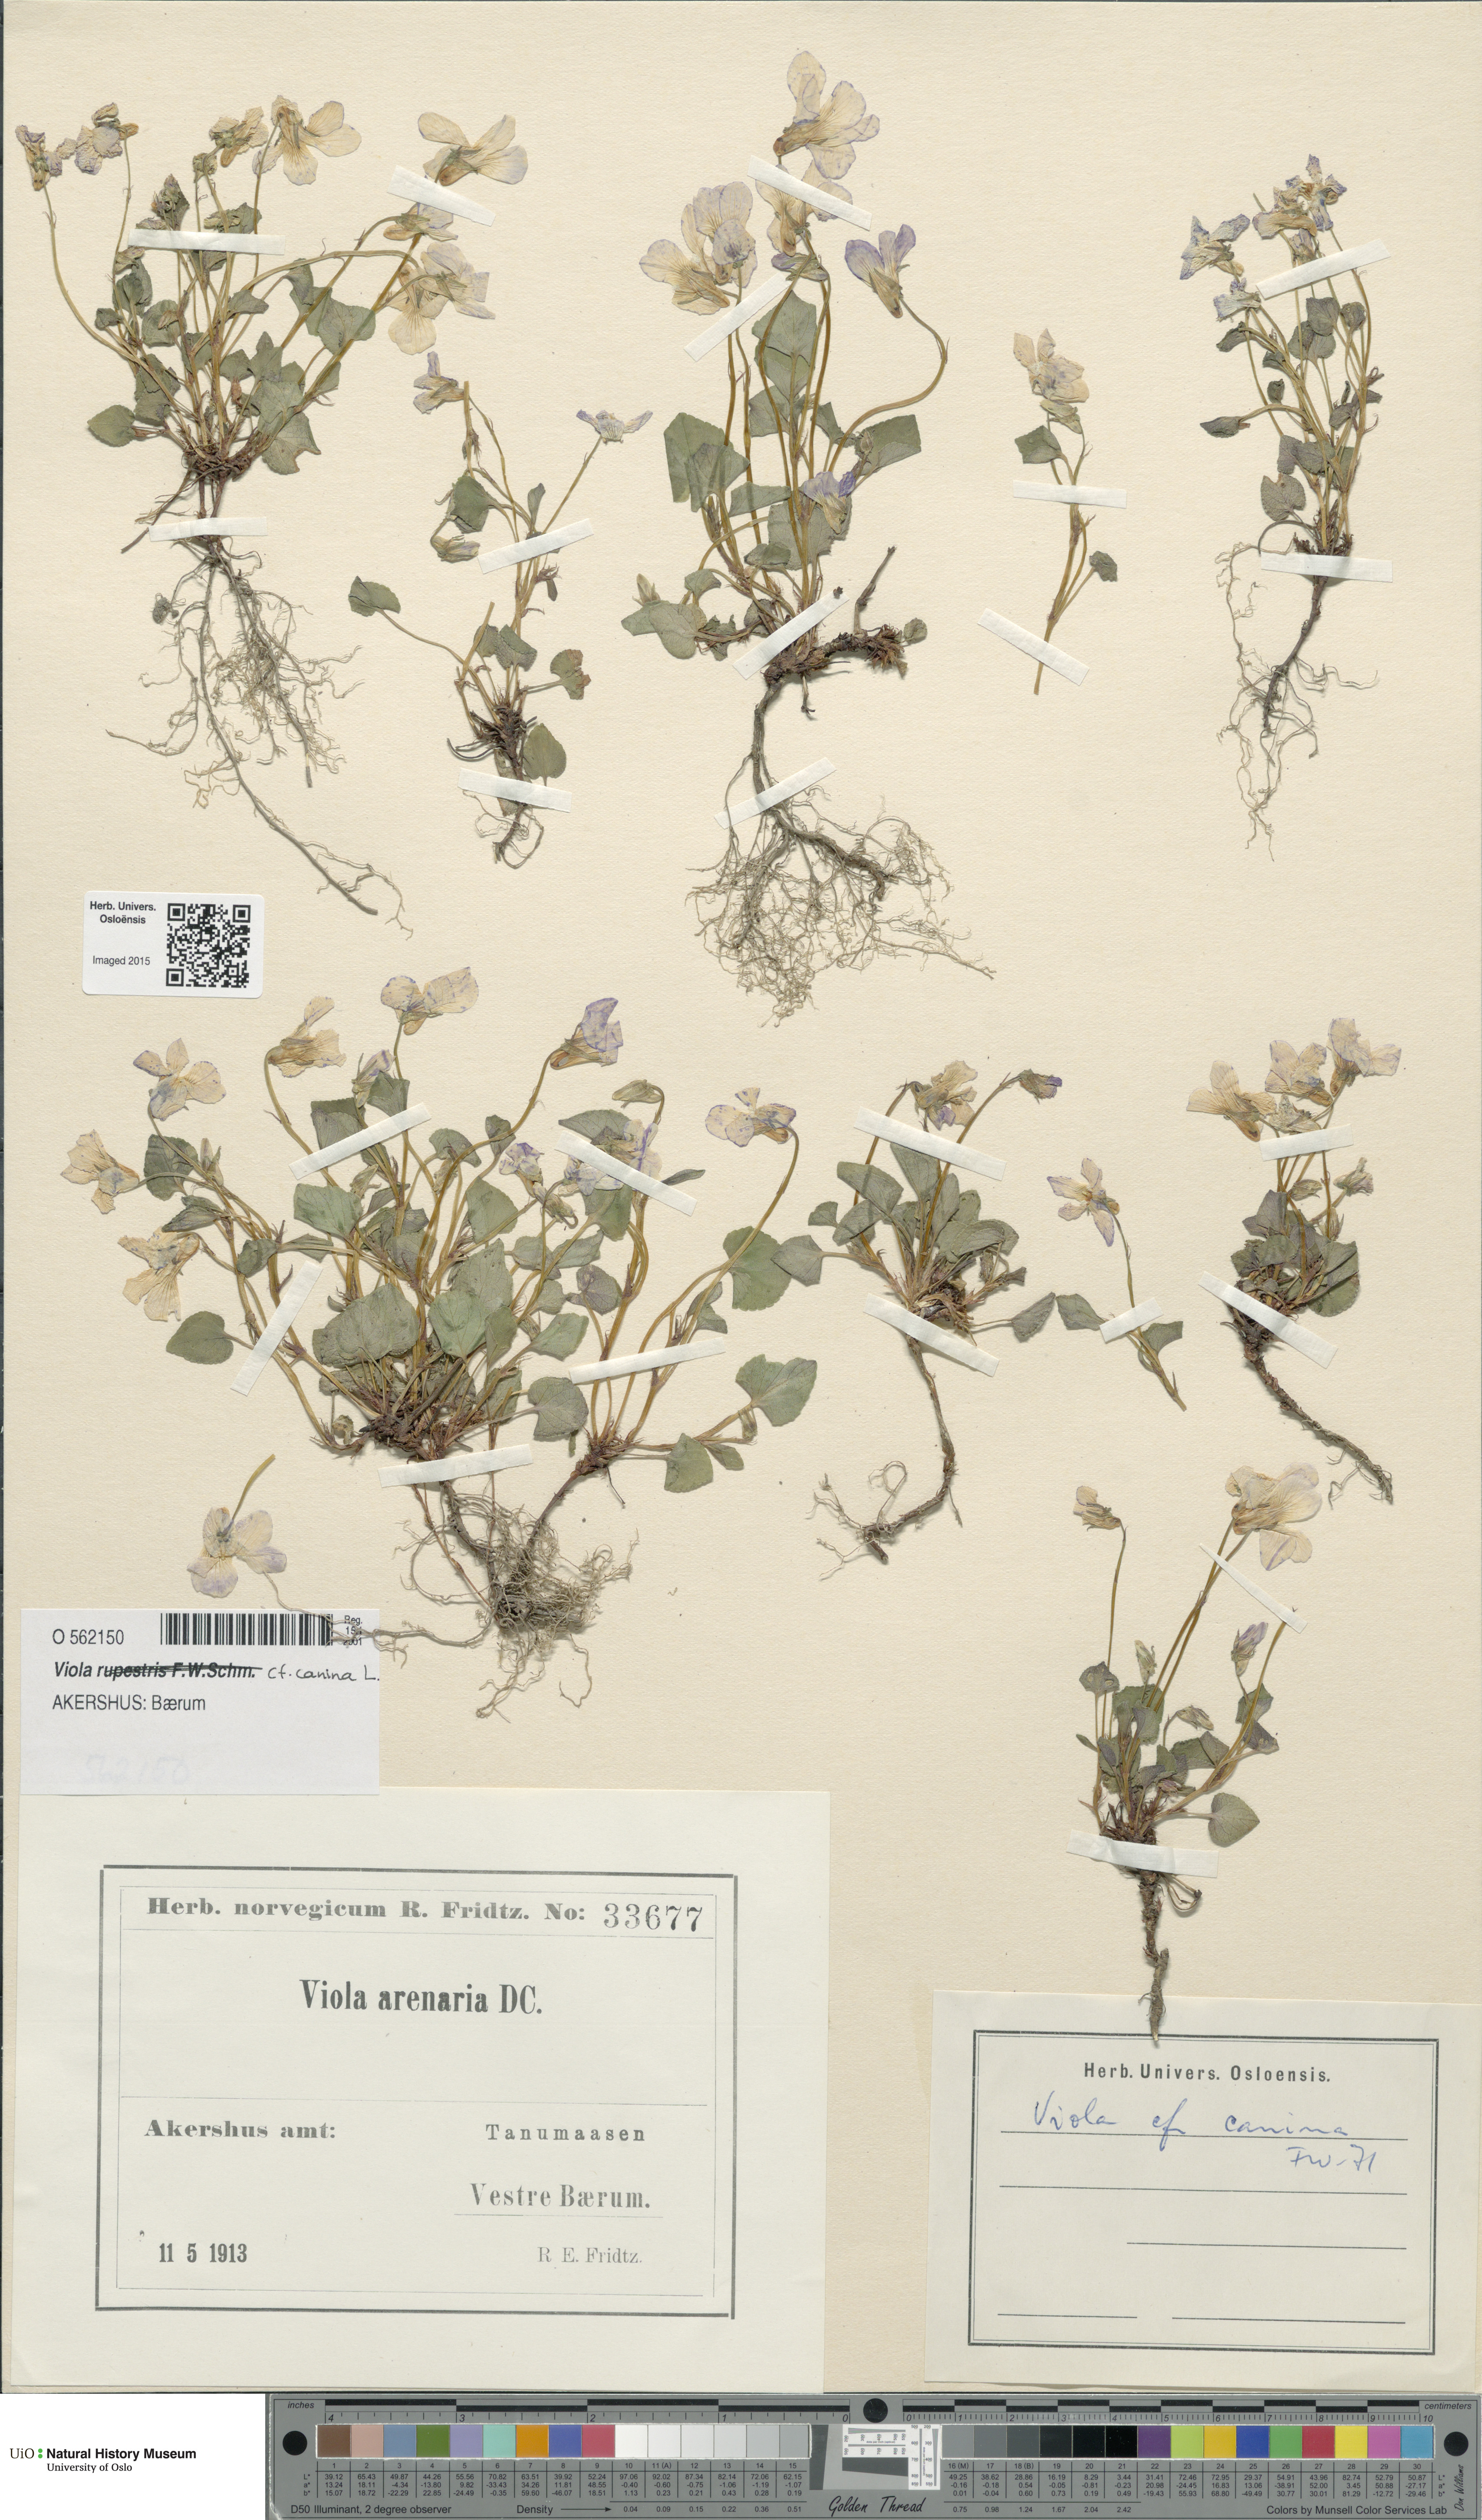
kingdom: Plantae
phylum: Tracheophyta
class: Magnoliopsida
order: Malpighiales
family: Violaceae
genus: Viola
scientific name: Viola canina
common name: Heath dog-violet
